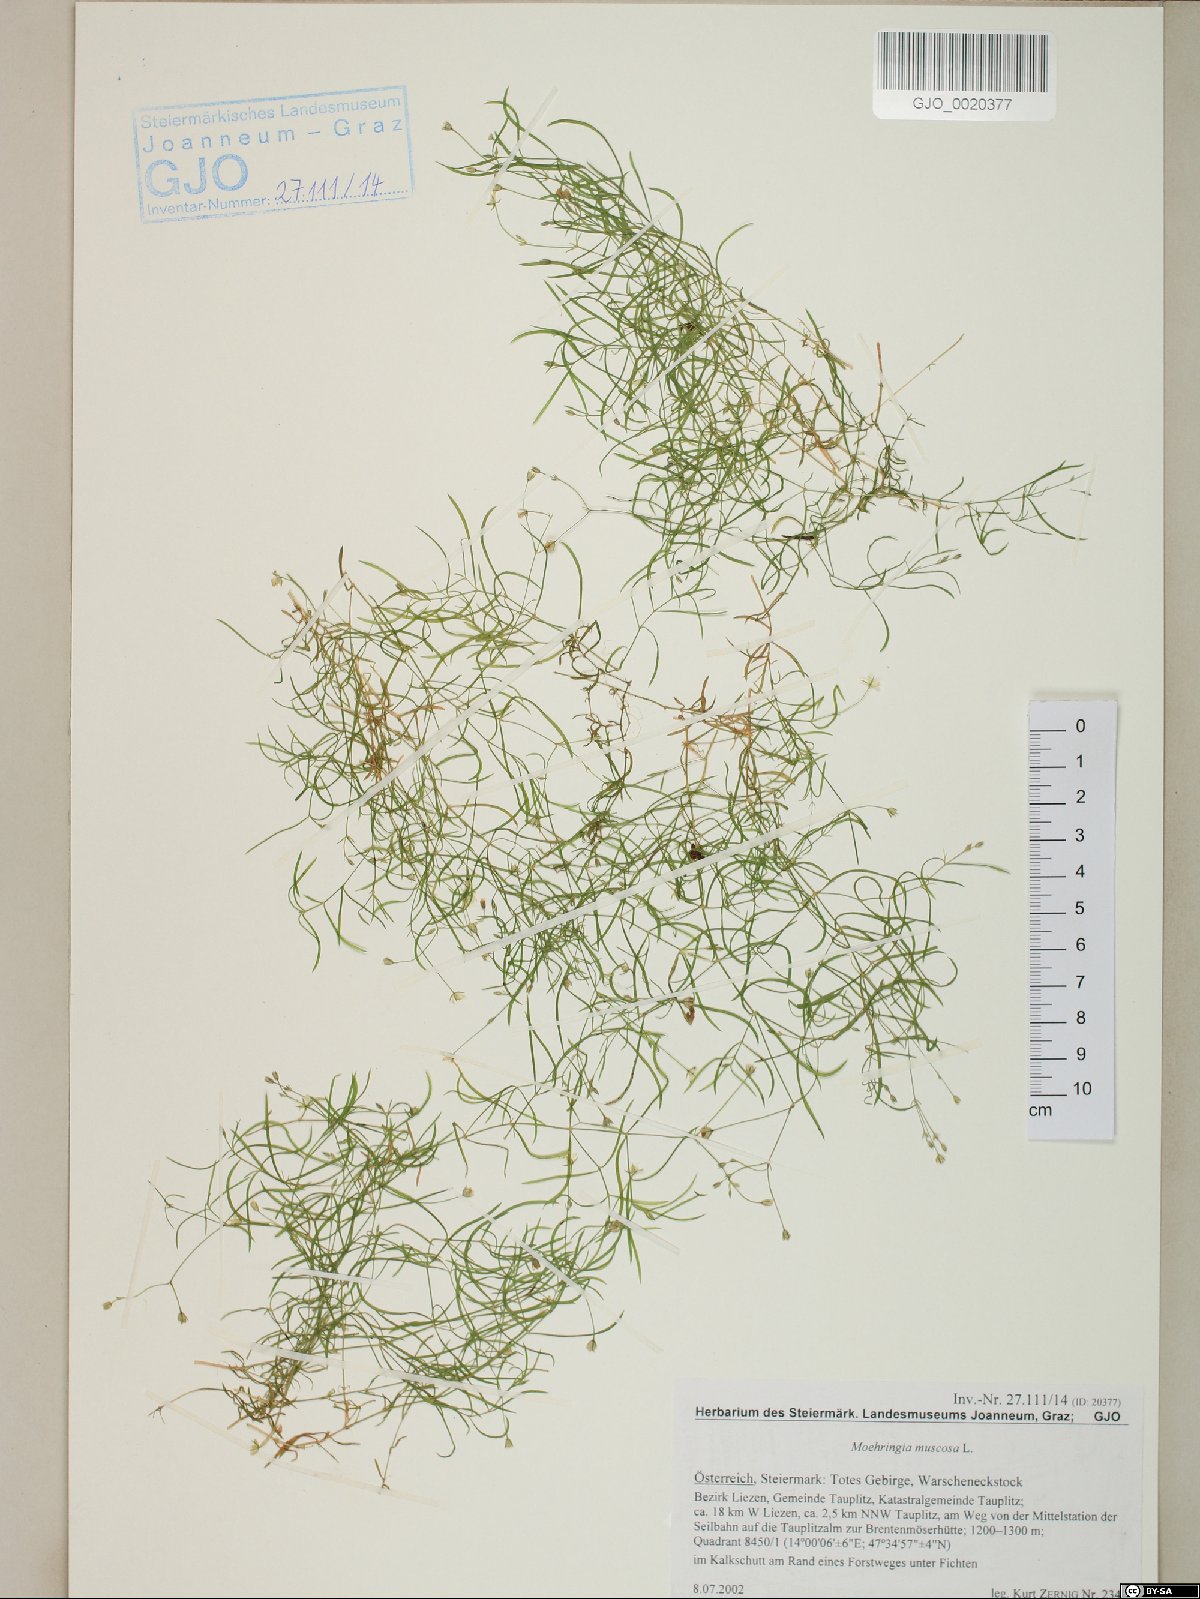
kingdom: Plantae
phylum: Tracheophyta
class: Magnoliopsida
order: Caryophyllales
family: Caryophyllaceae
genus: Moehringia
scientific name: Moehringia muscosa
